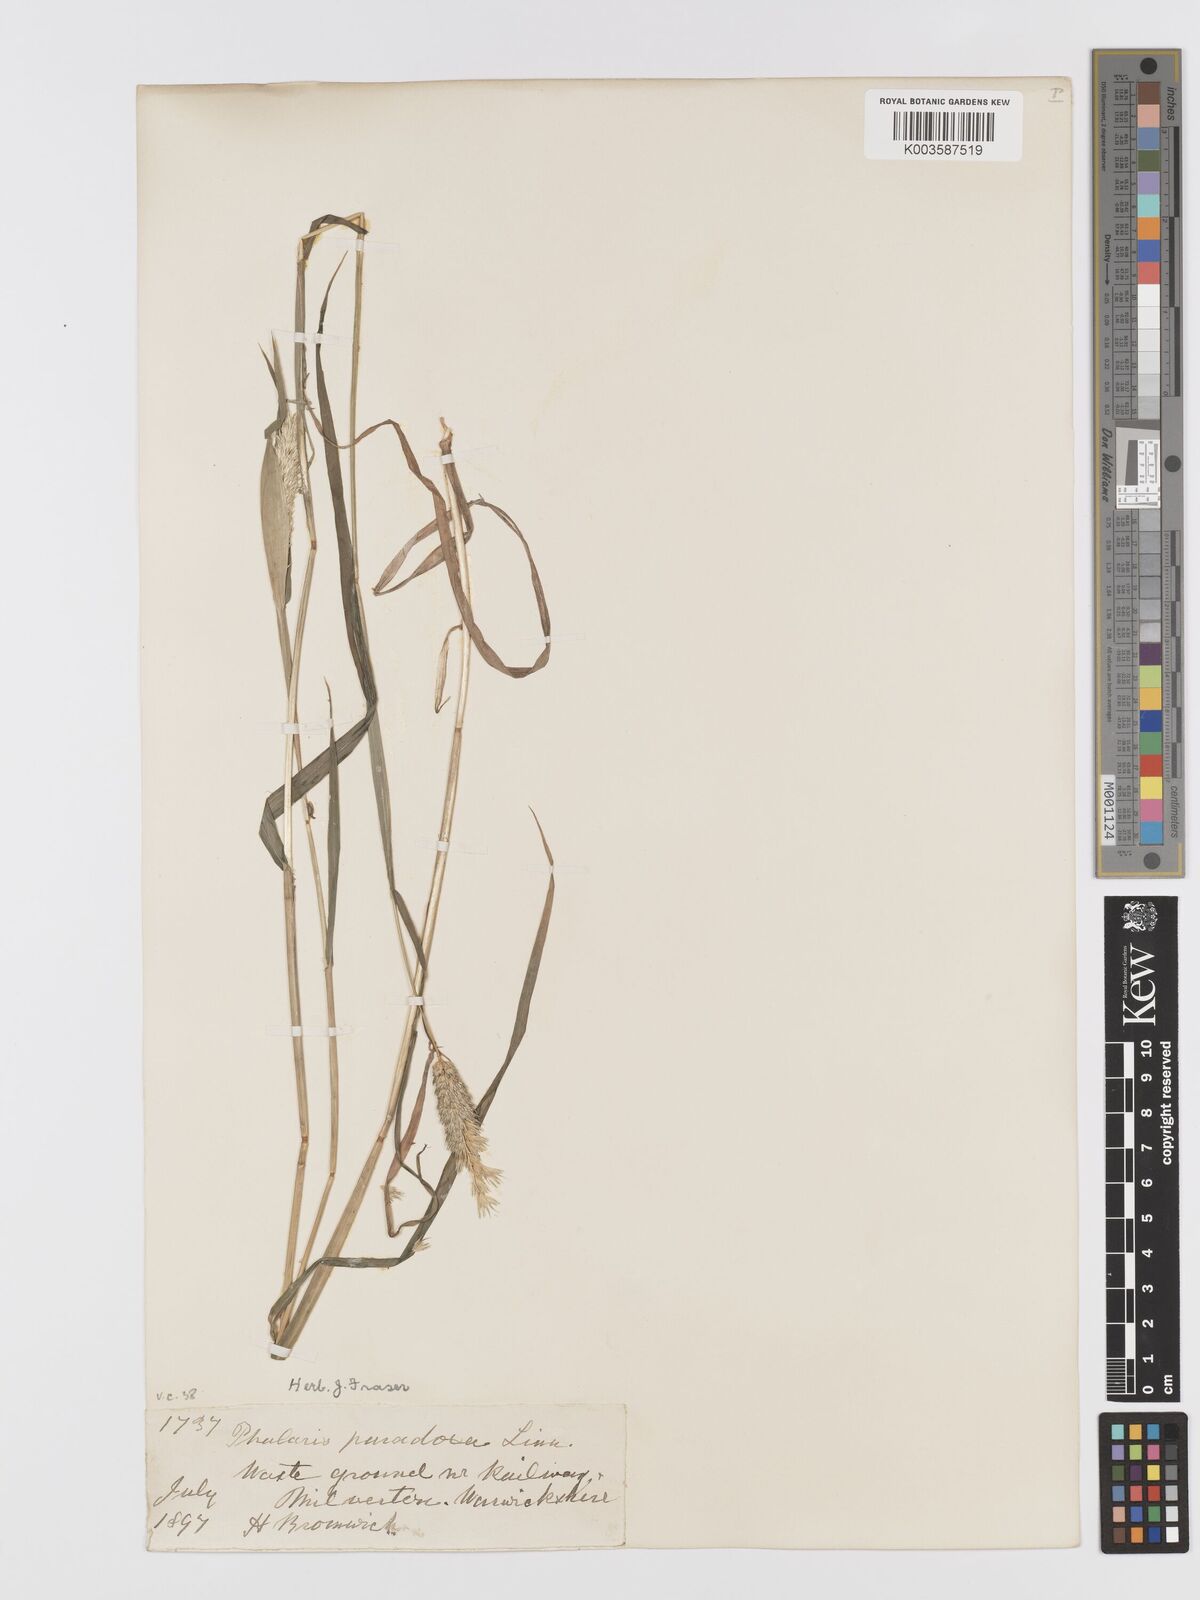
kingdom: Plantae
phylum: Tracheophyta
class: Liliopsida
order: Poales
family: Poaceae
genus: Phalaris
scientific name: Phalaris paradoxa
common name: Awned canary-grass
